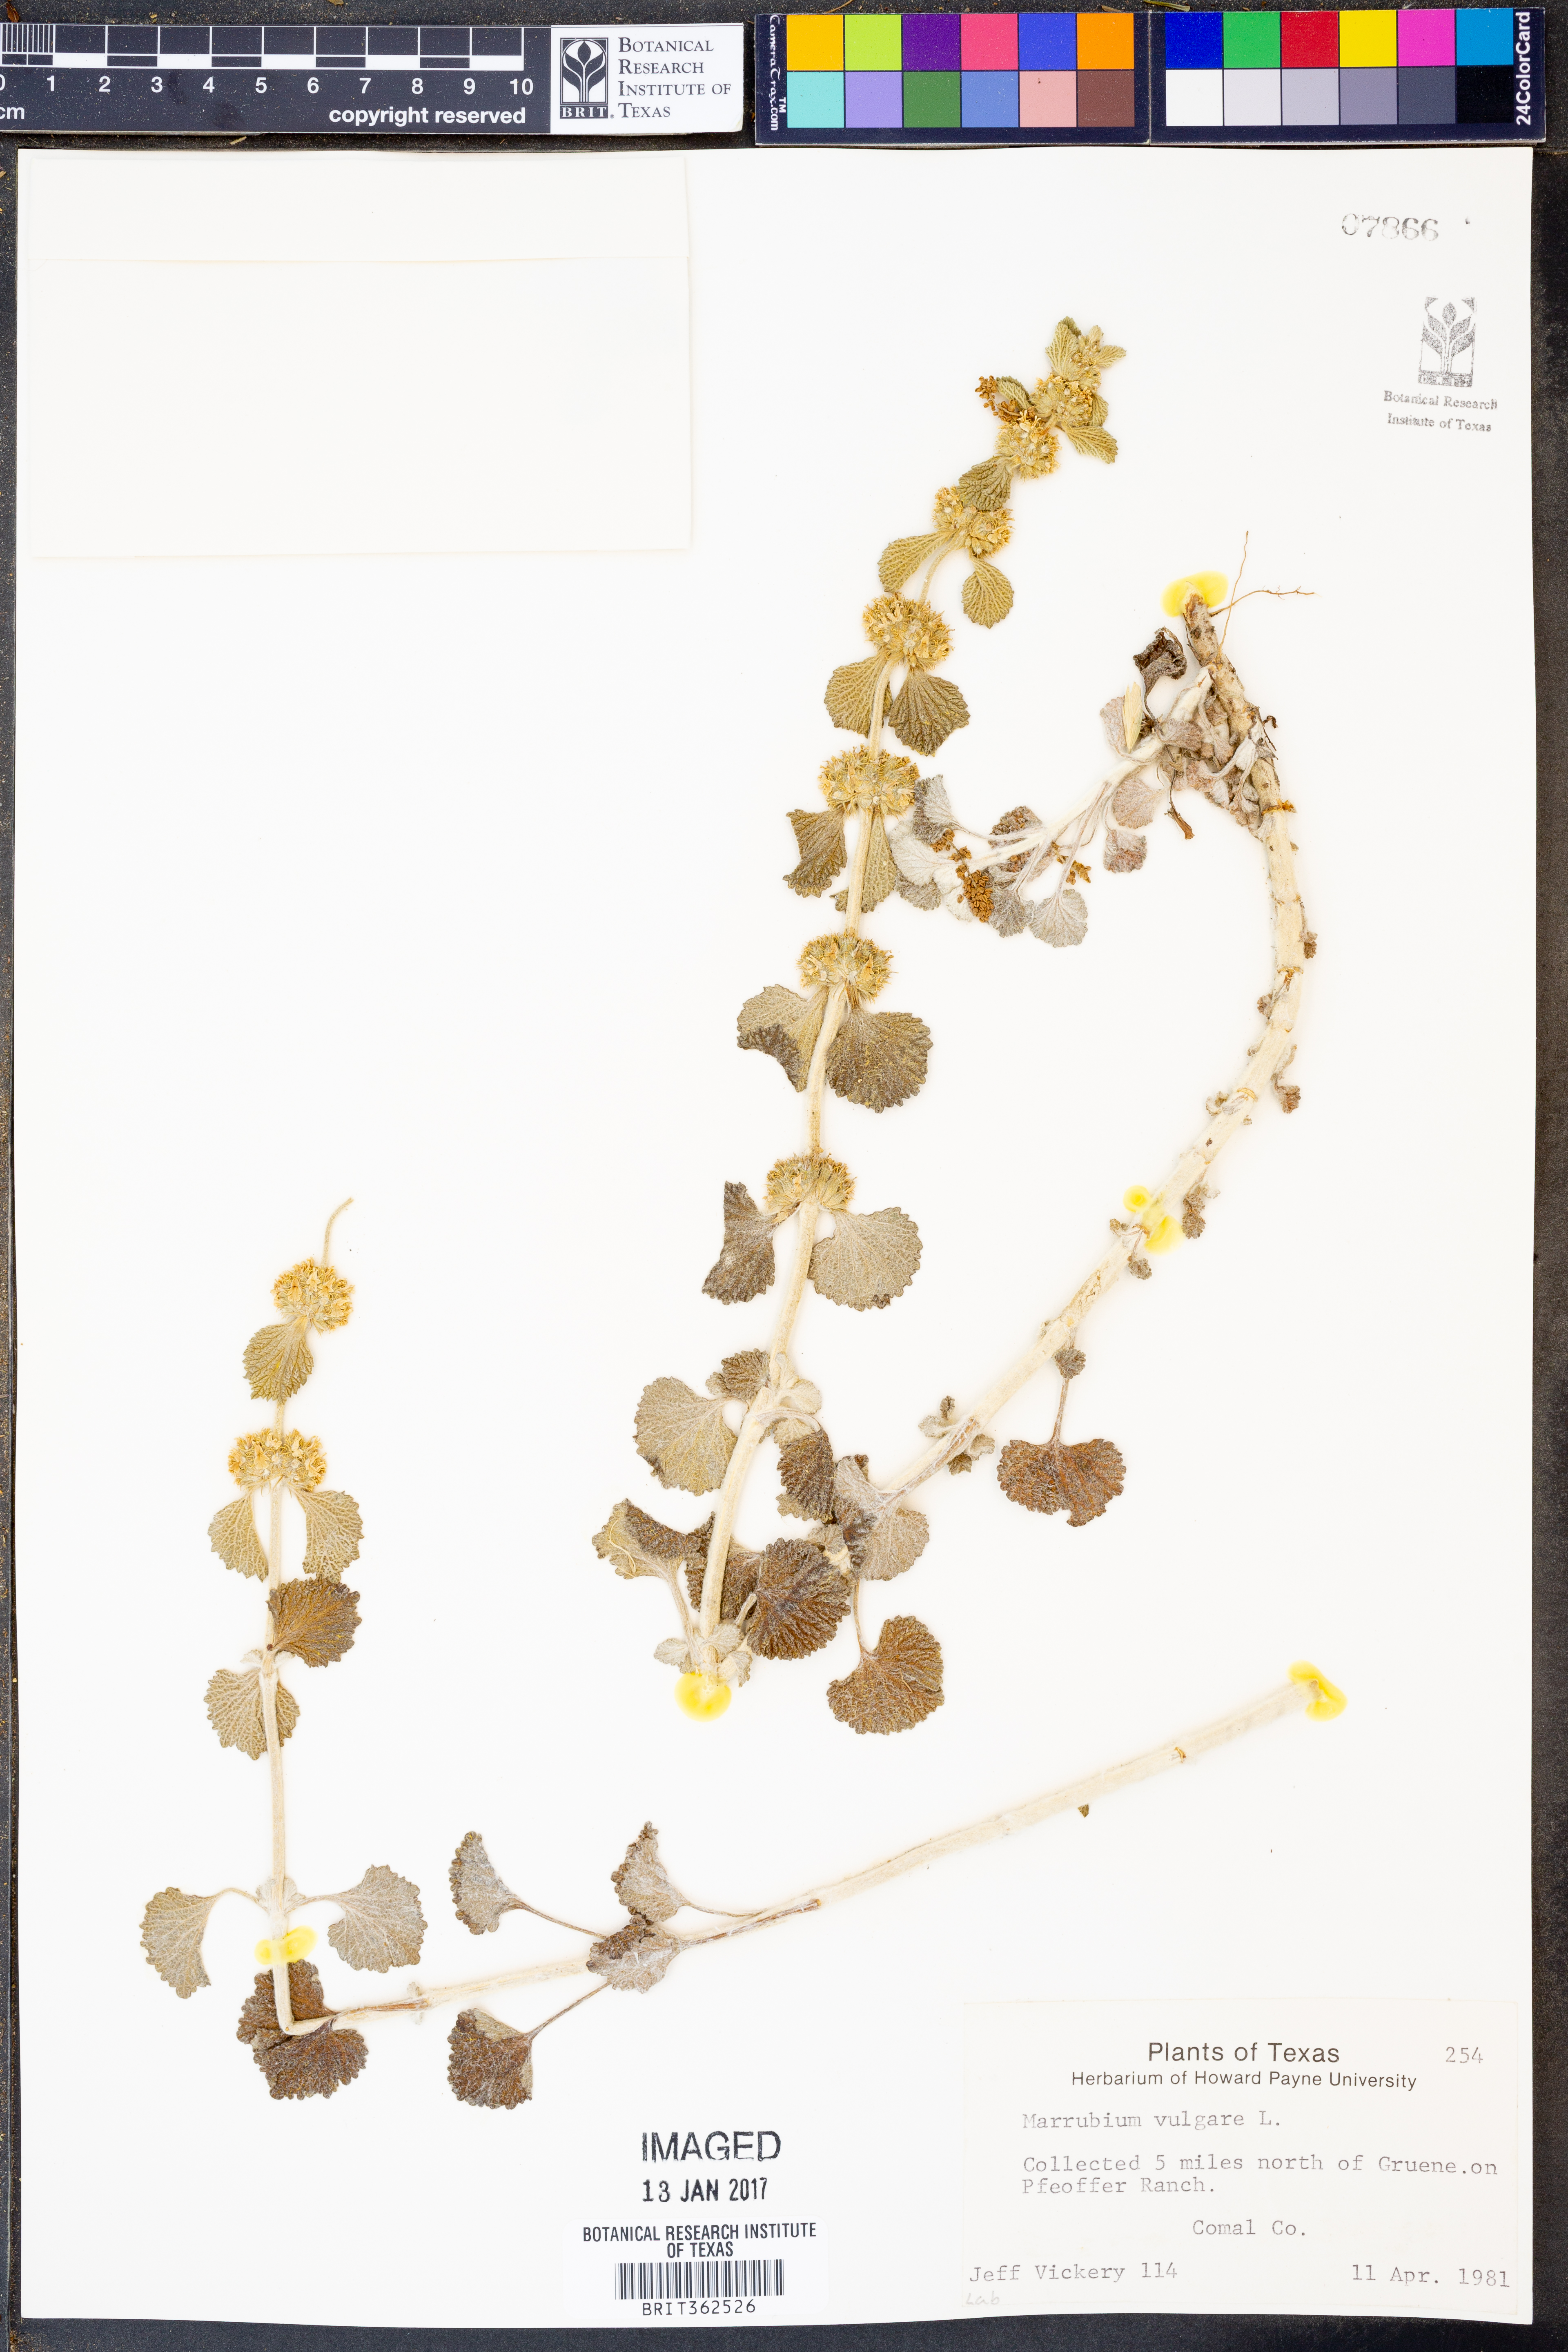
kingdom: Plantae
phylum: Tracheophyta
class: Magnoliopsida
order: Lamiales
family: Lamiaceae
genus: Marrubium
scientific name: Marrubium vulgare
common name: Horehound
